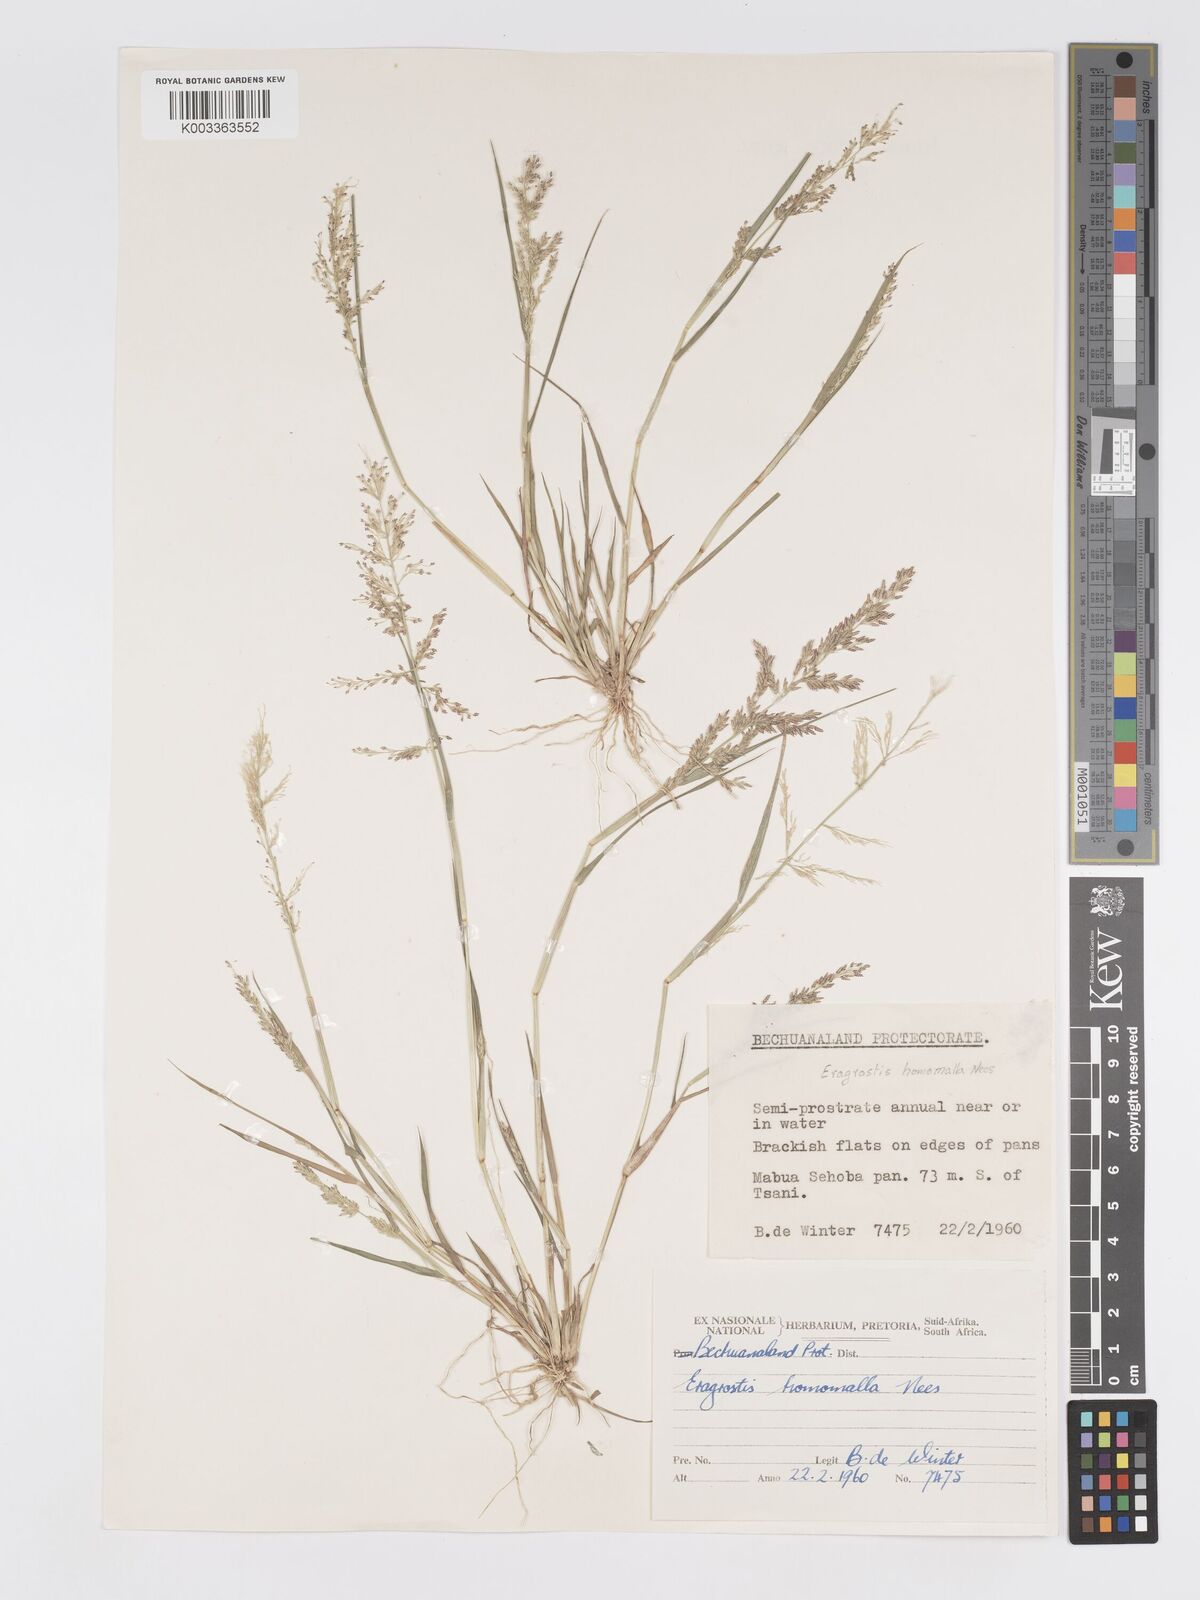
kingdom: Plantae
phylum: Tracheophyta
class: Liliopsida
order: Poales
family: Poaceae
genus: Eragrostis
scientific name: Eragrostis homomalla
